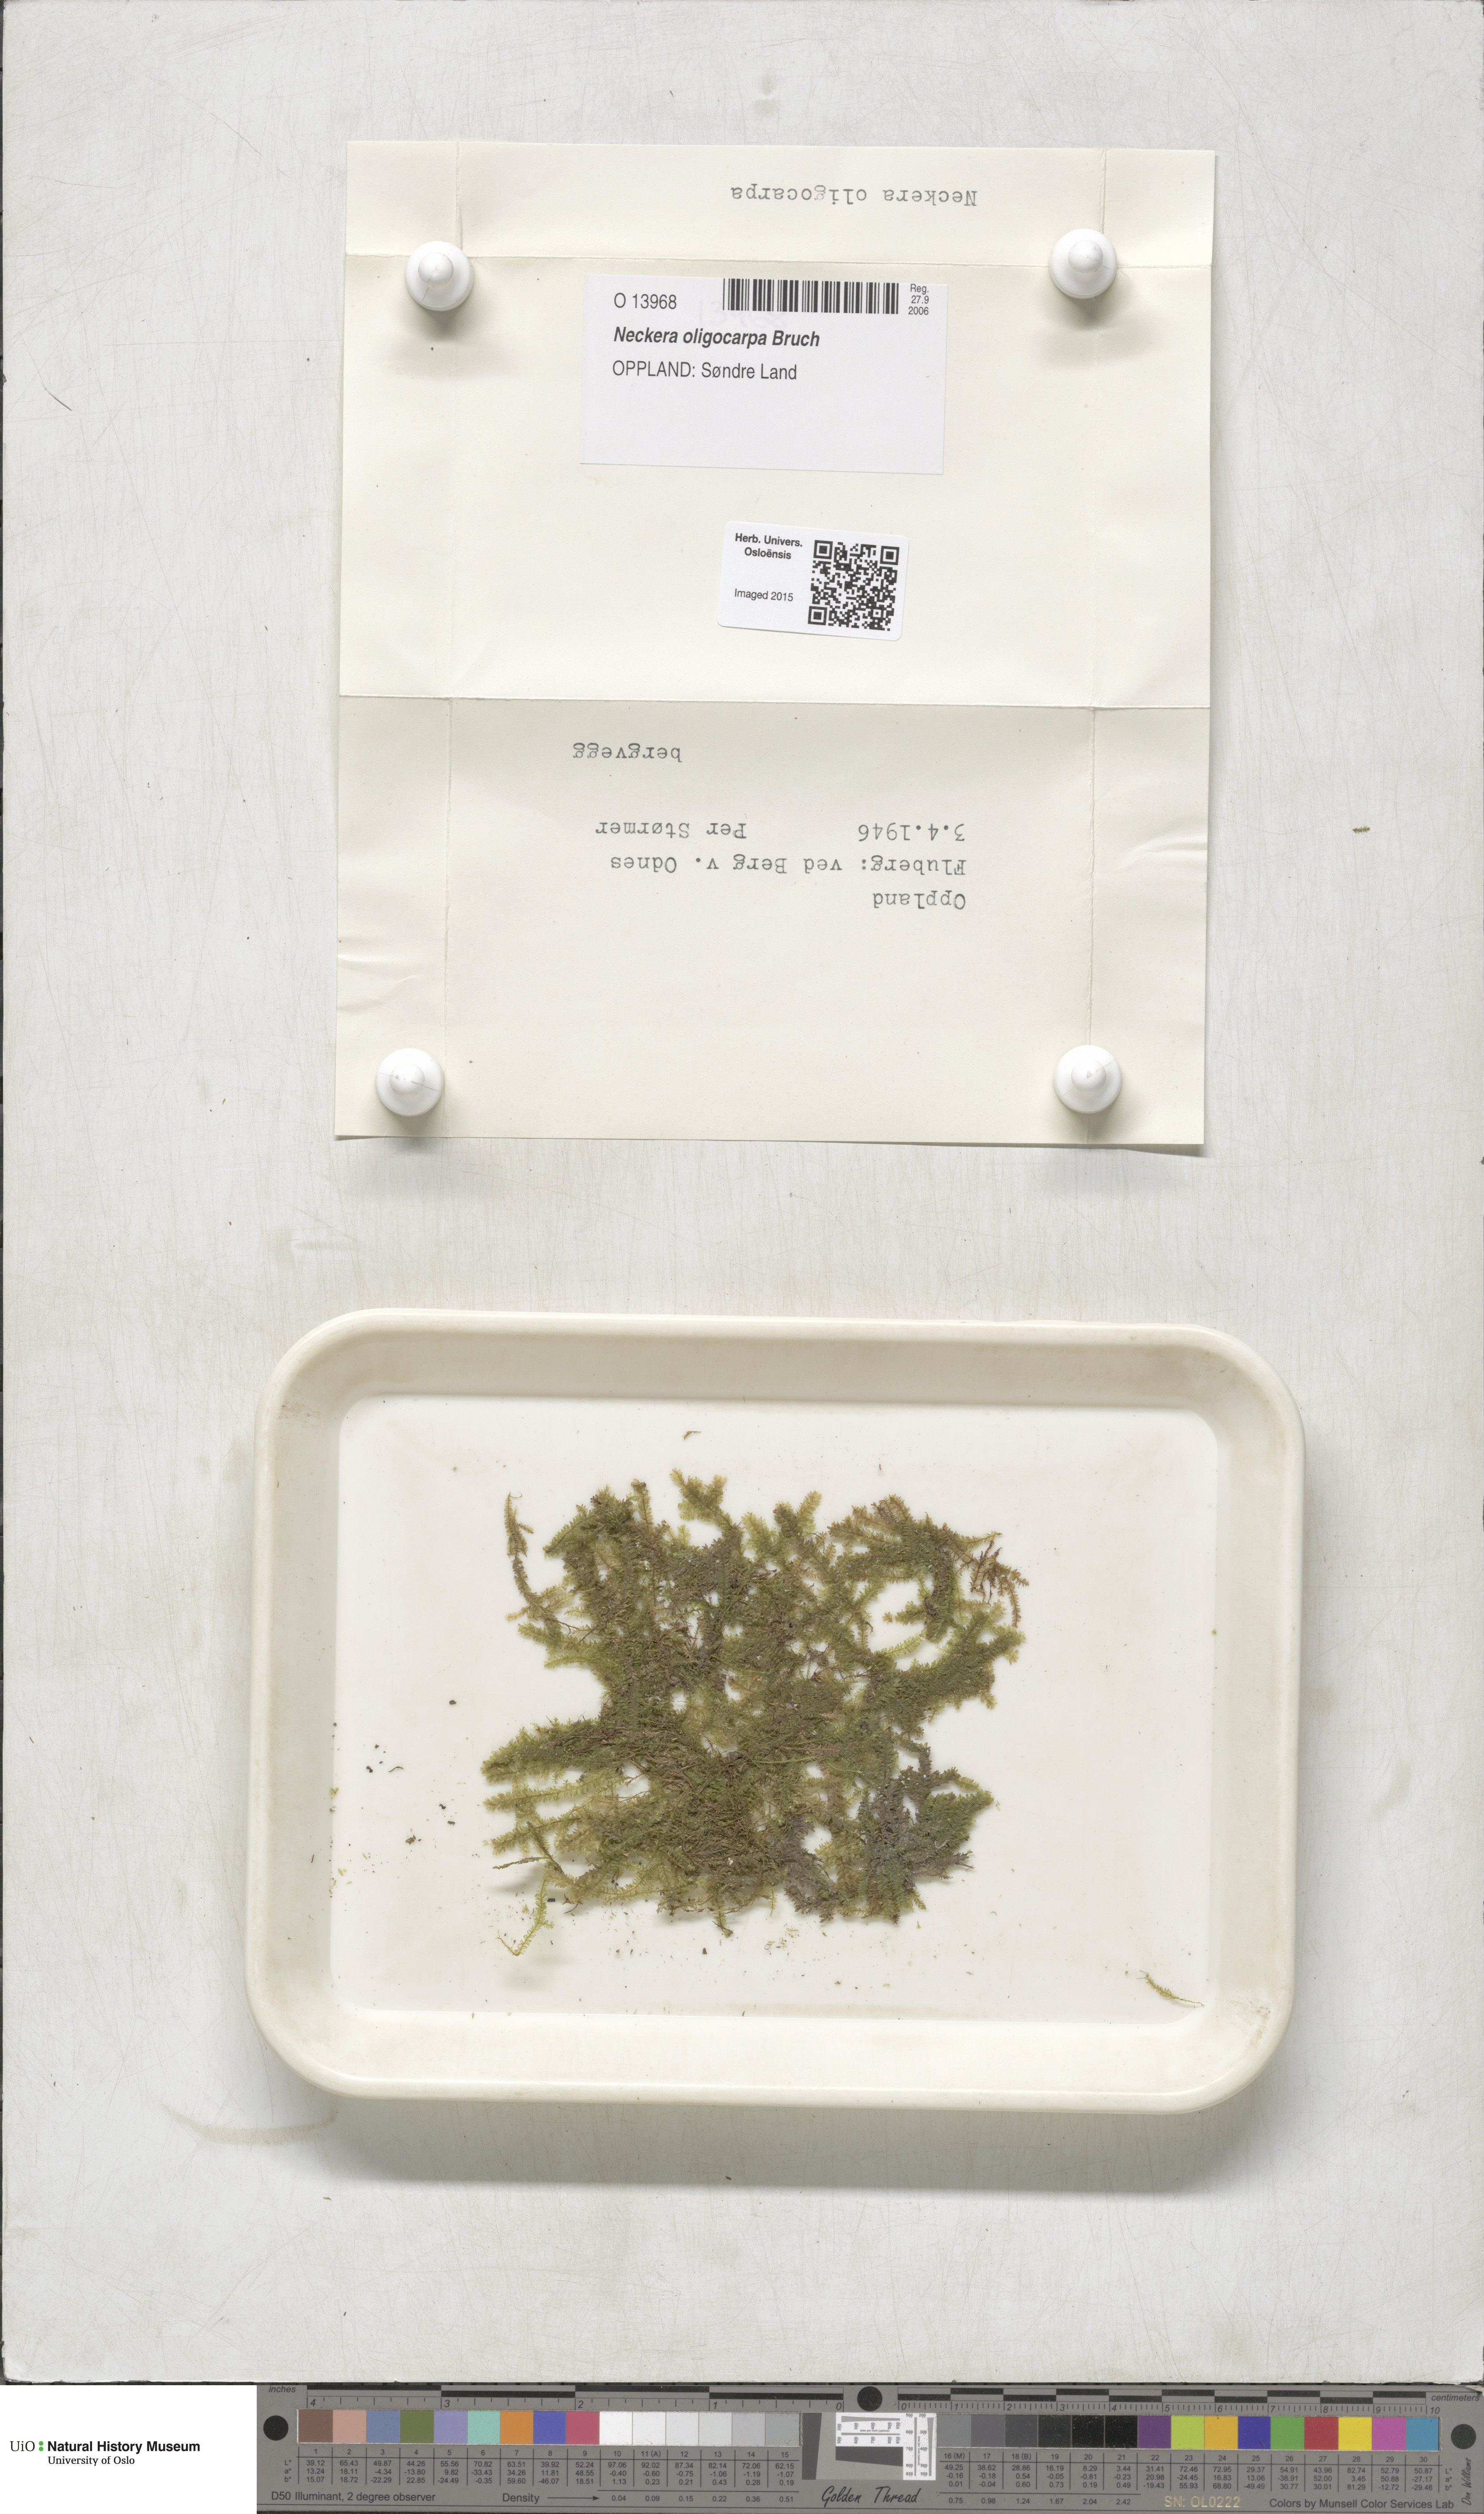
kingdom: Plantae
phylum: Bryophyta
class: Bryopsida
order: Hypnales
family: Neckeraceae
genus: Neckera
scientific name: Neckera oligocarpa
